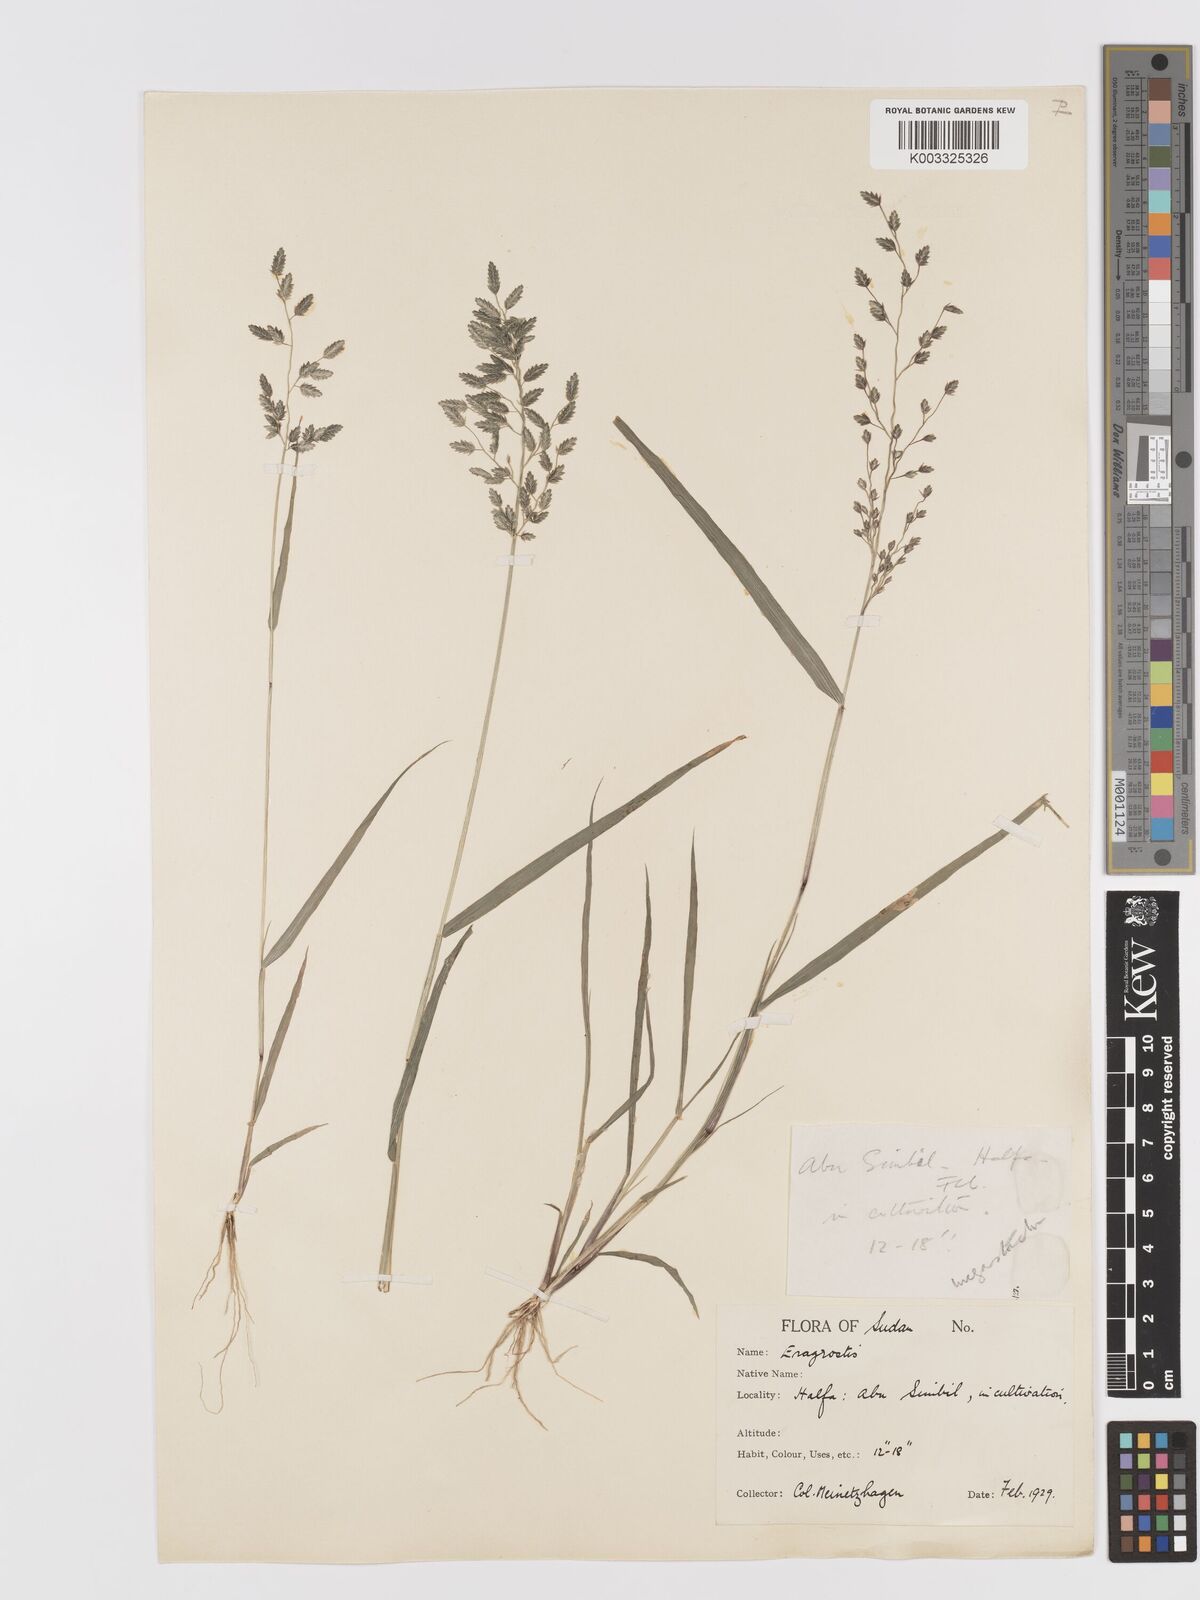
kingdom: Plantae
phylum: Tracheophyta
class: Liliopsida
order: Poales
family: Poaceae
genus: Eragrostis
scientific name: Eragrostis cilianensis
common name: Stinkgrass
